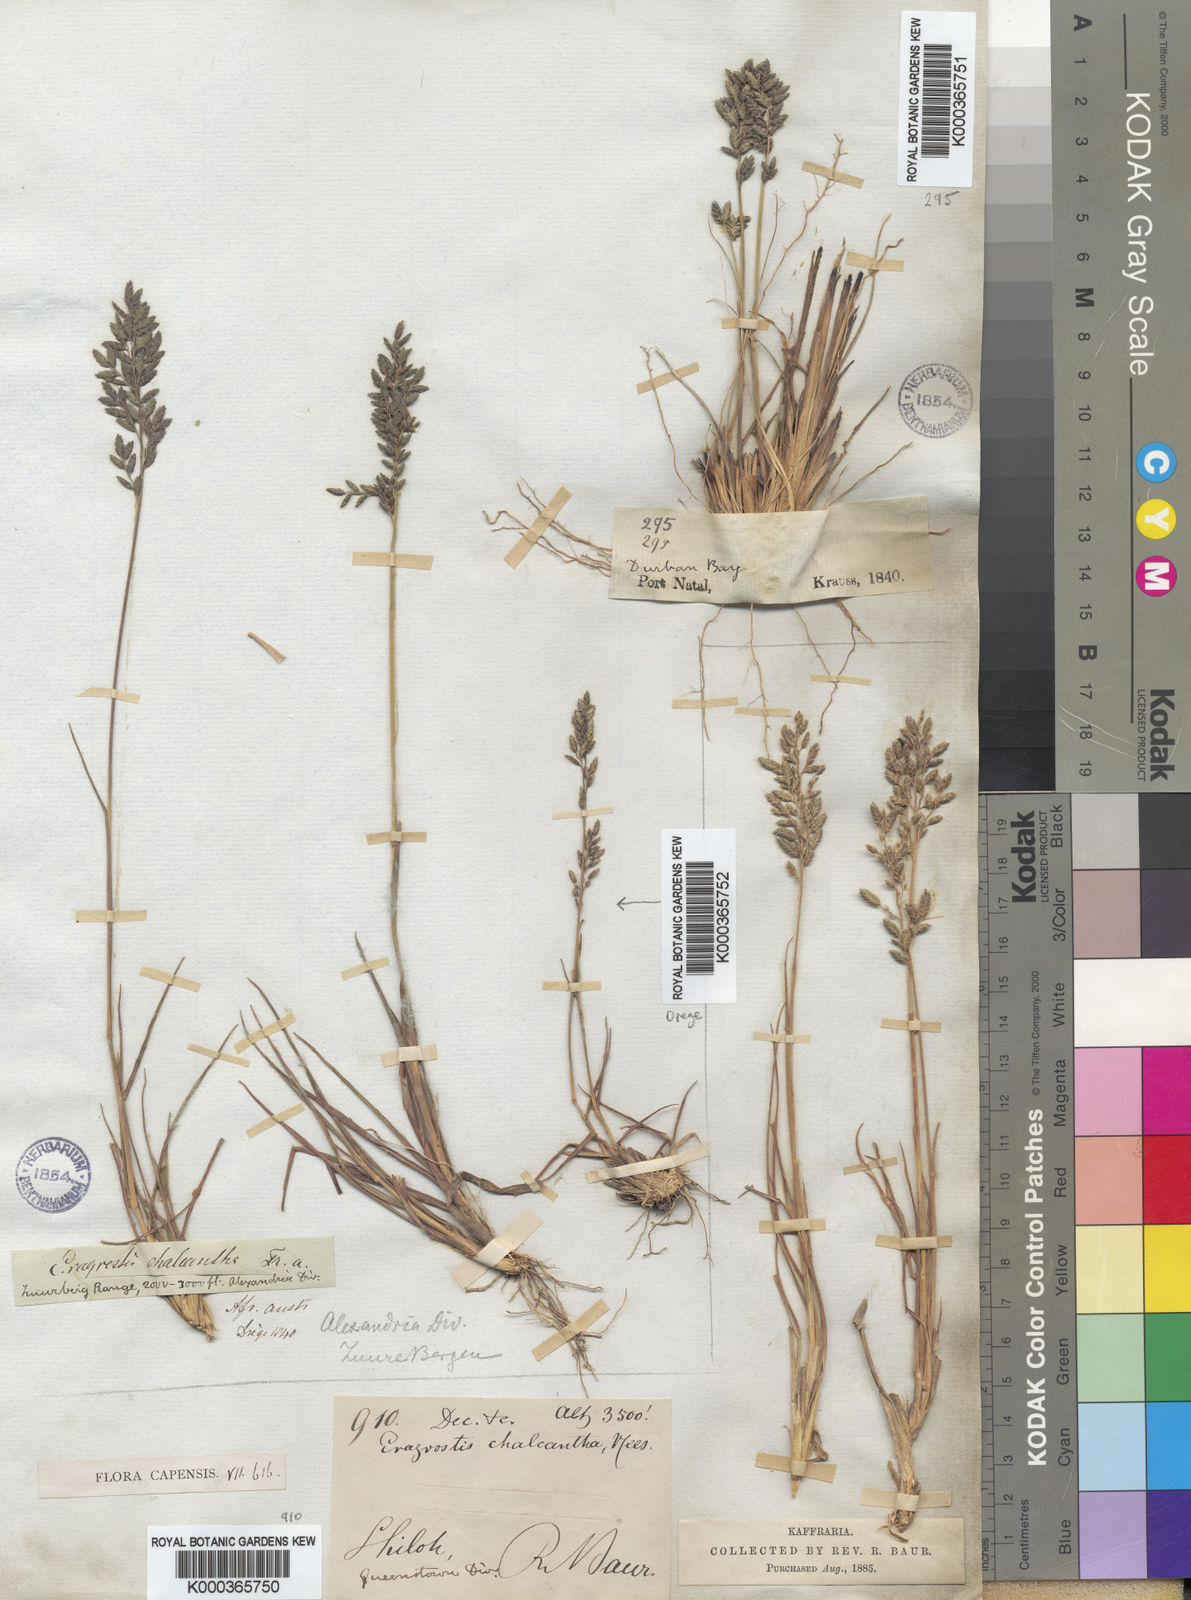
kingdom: Plantae
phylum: Tracheophyta
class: Liliopsida
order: Poales
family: Poaceae
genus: Eragrostis
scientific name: Eragrostis racemosa
